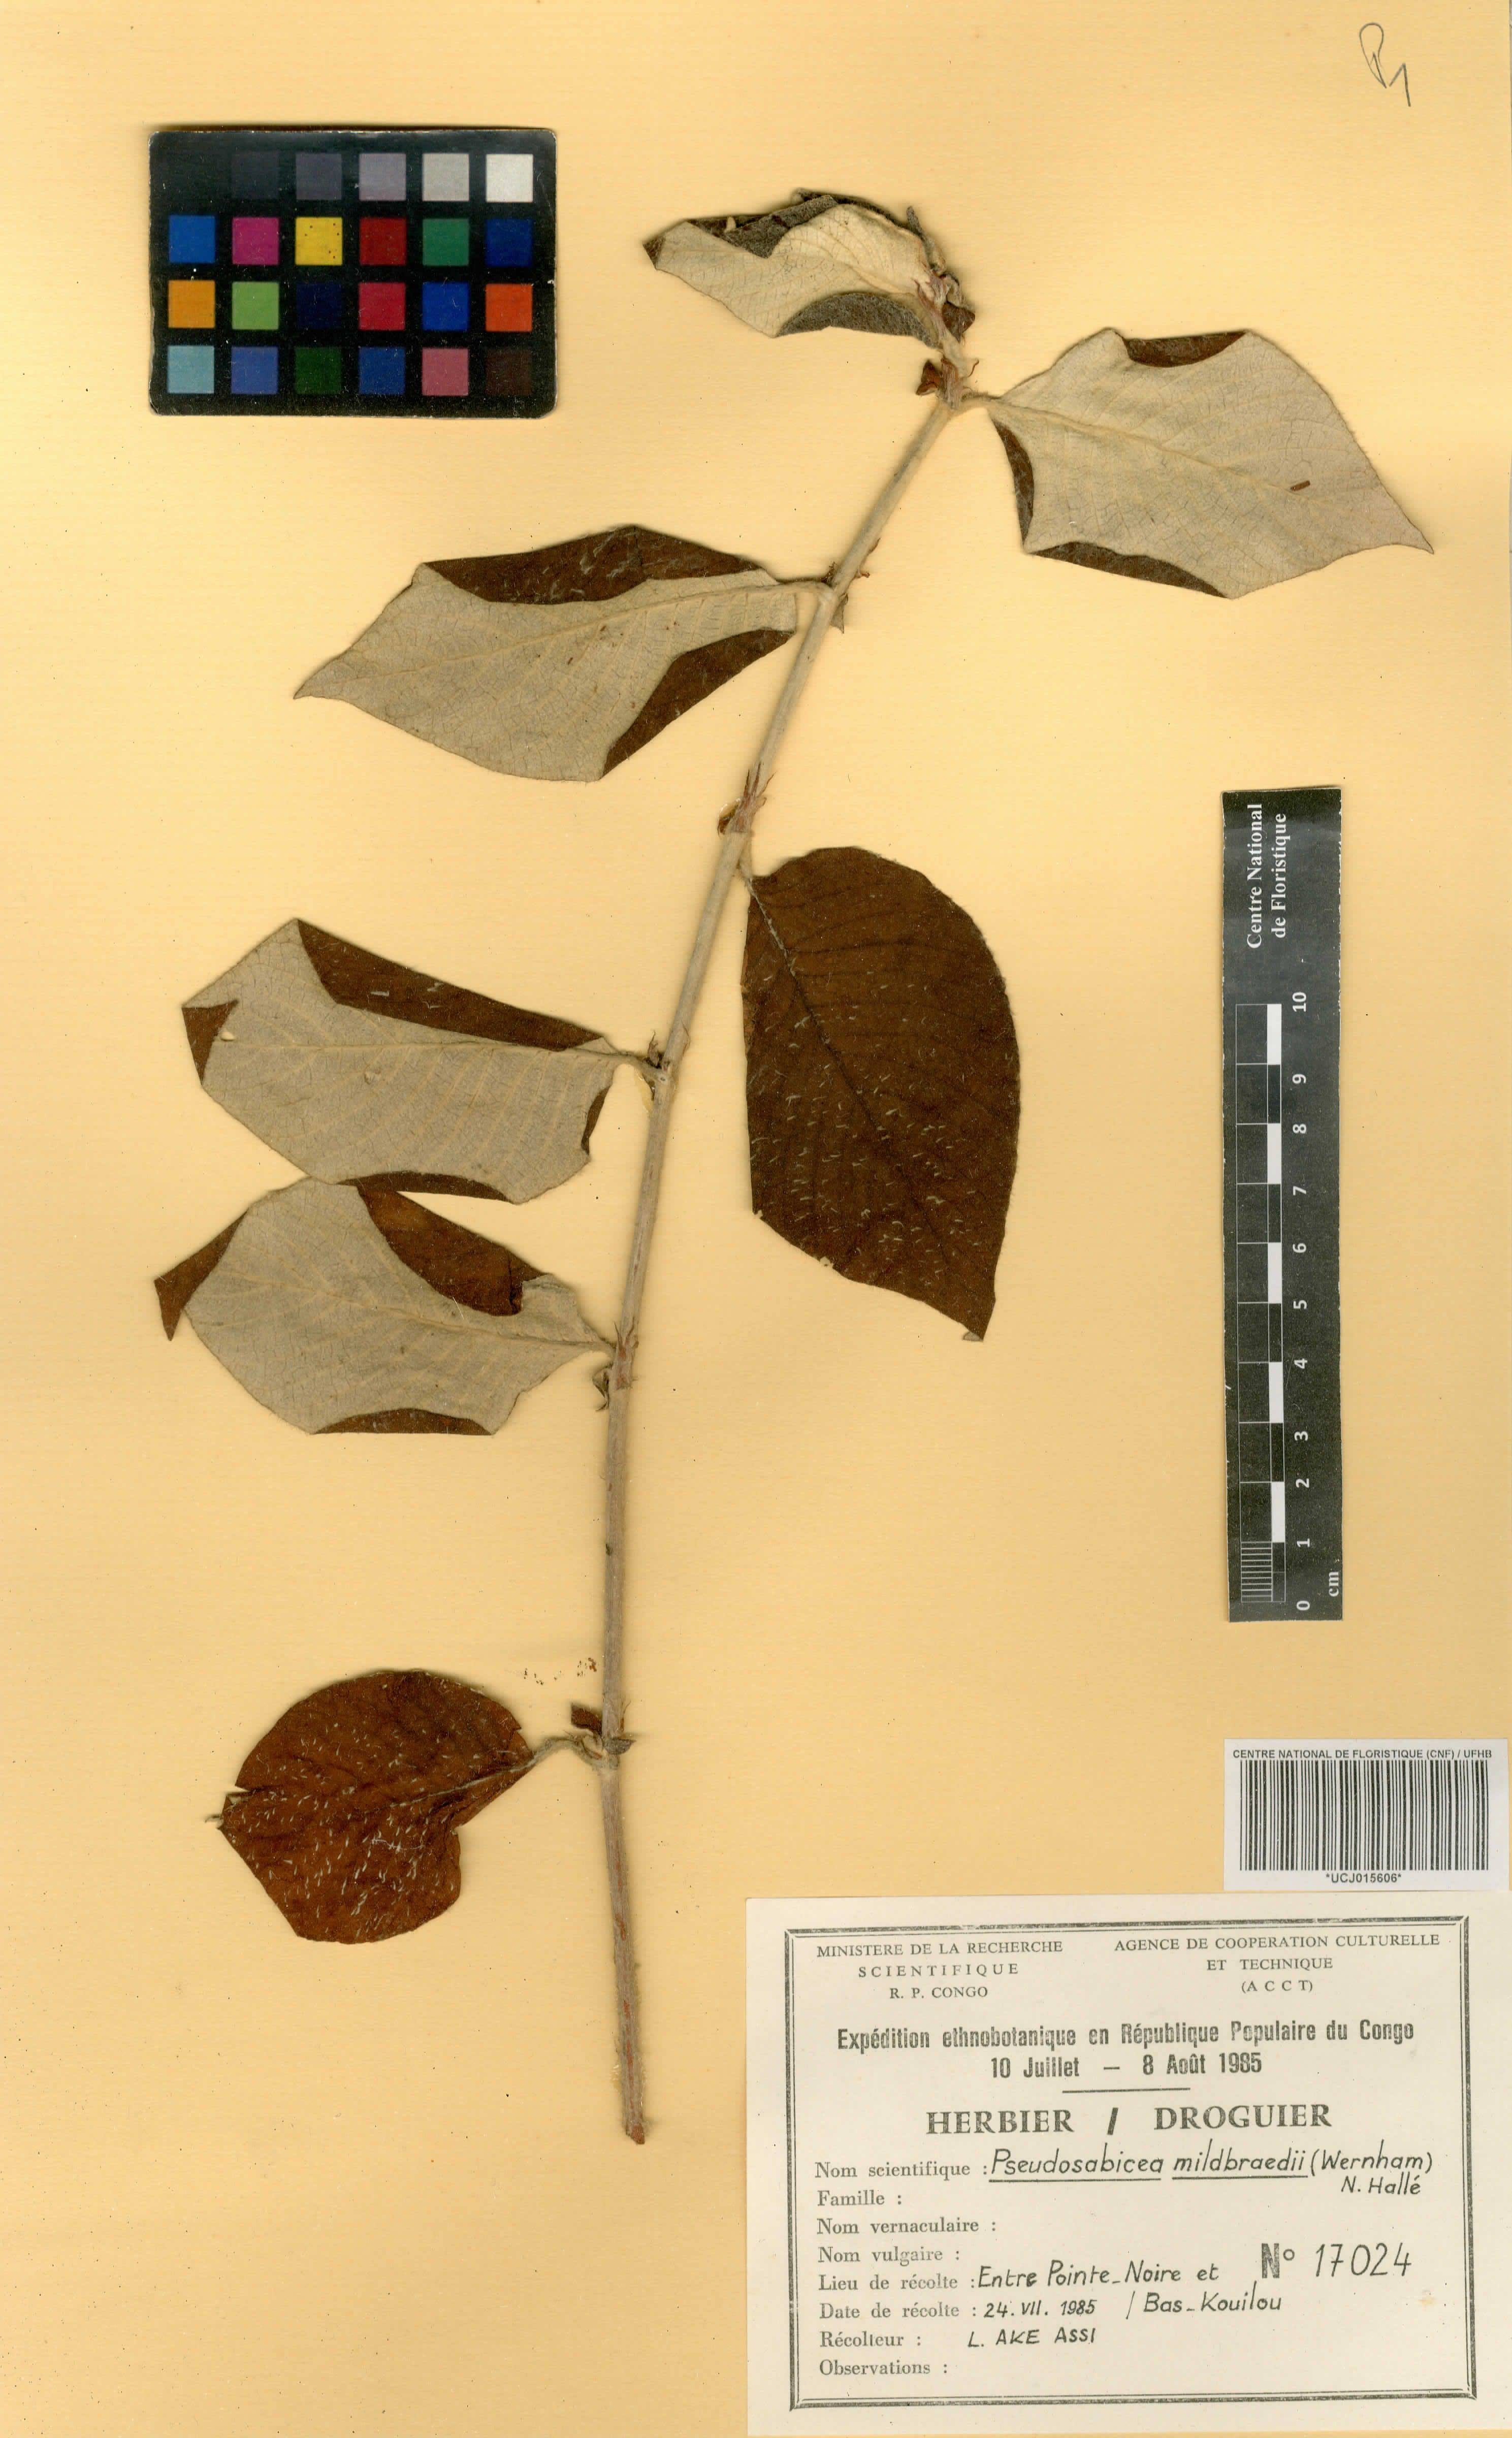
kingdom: Plantae
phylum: Tracheophyta
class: Magnoliopsida
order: Gentianales
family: Rubiaceae
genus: Sabicea
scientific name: Sabicea mildbraedii
